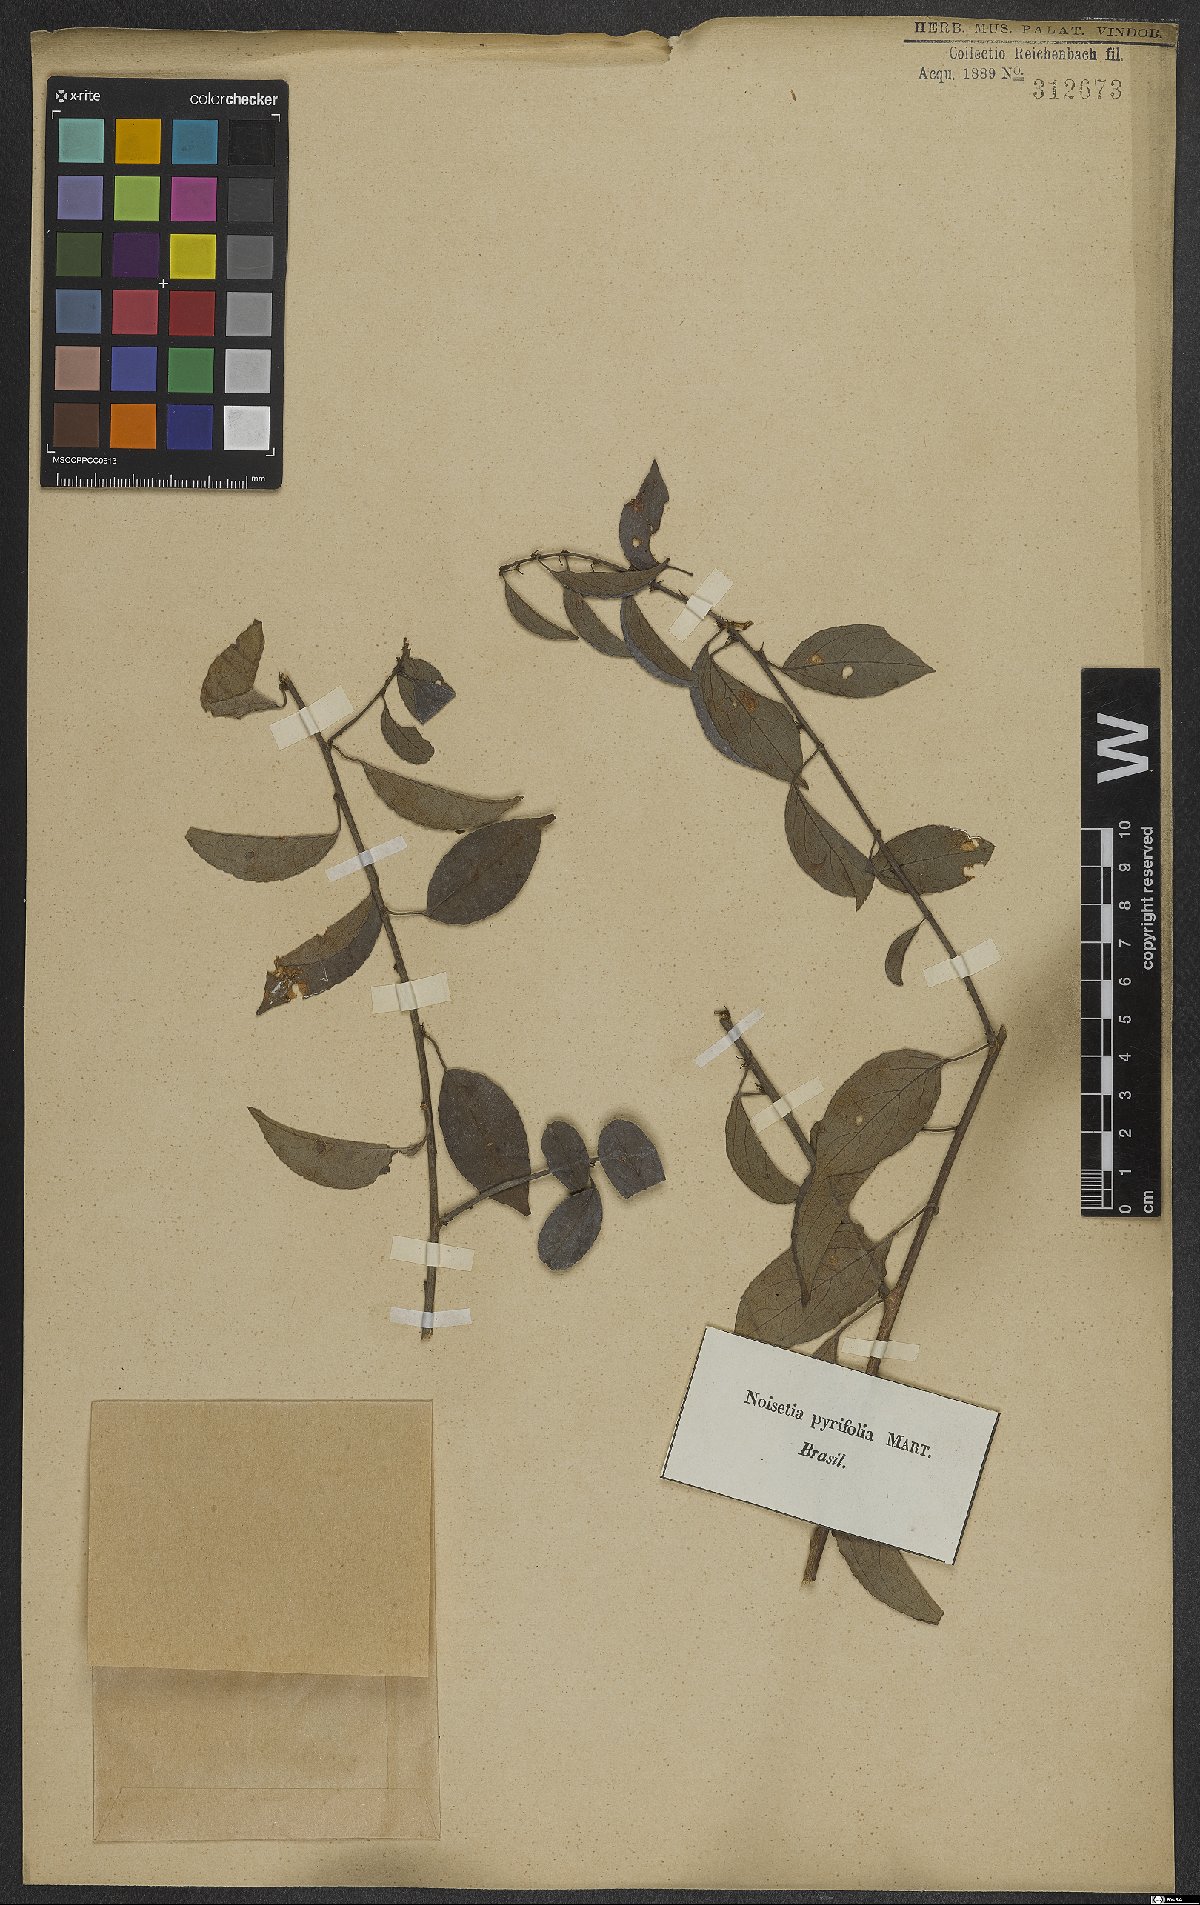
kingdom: Plantae
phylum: Tracheophyta
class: Magnoliopsida
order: Malpighiales
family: Violaceae
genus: Anchietea
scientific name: Anchietea pyrifolia
